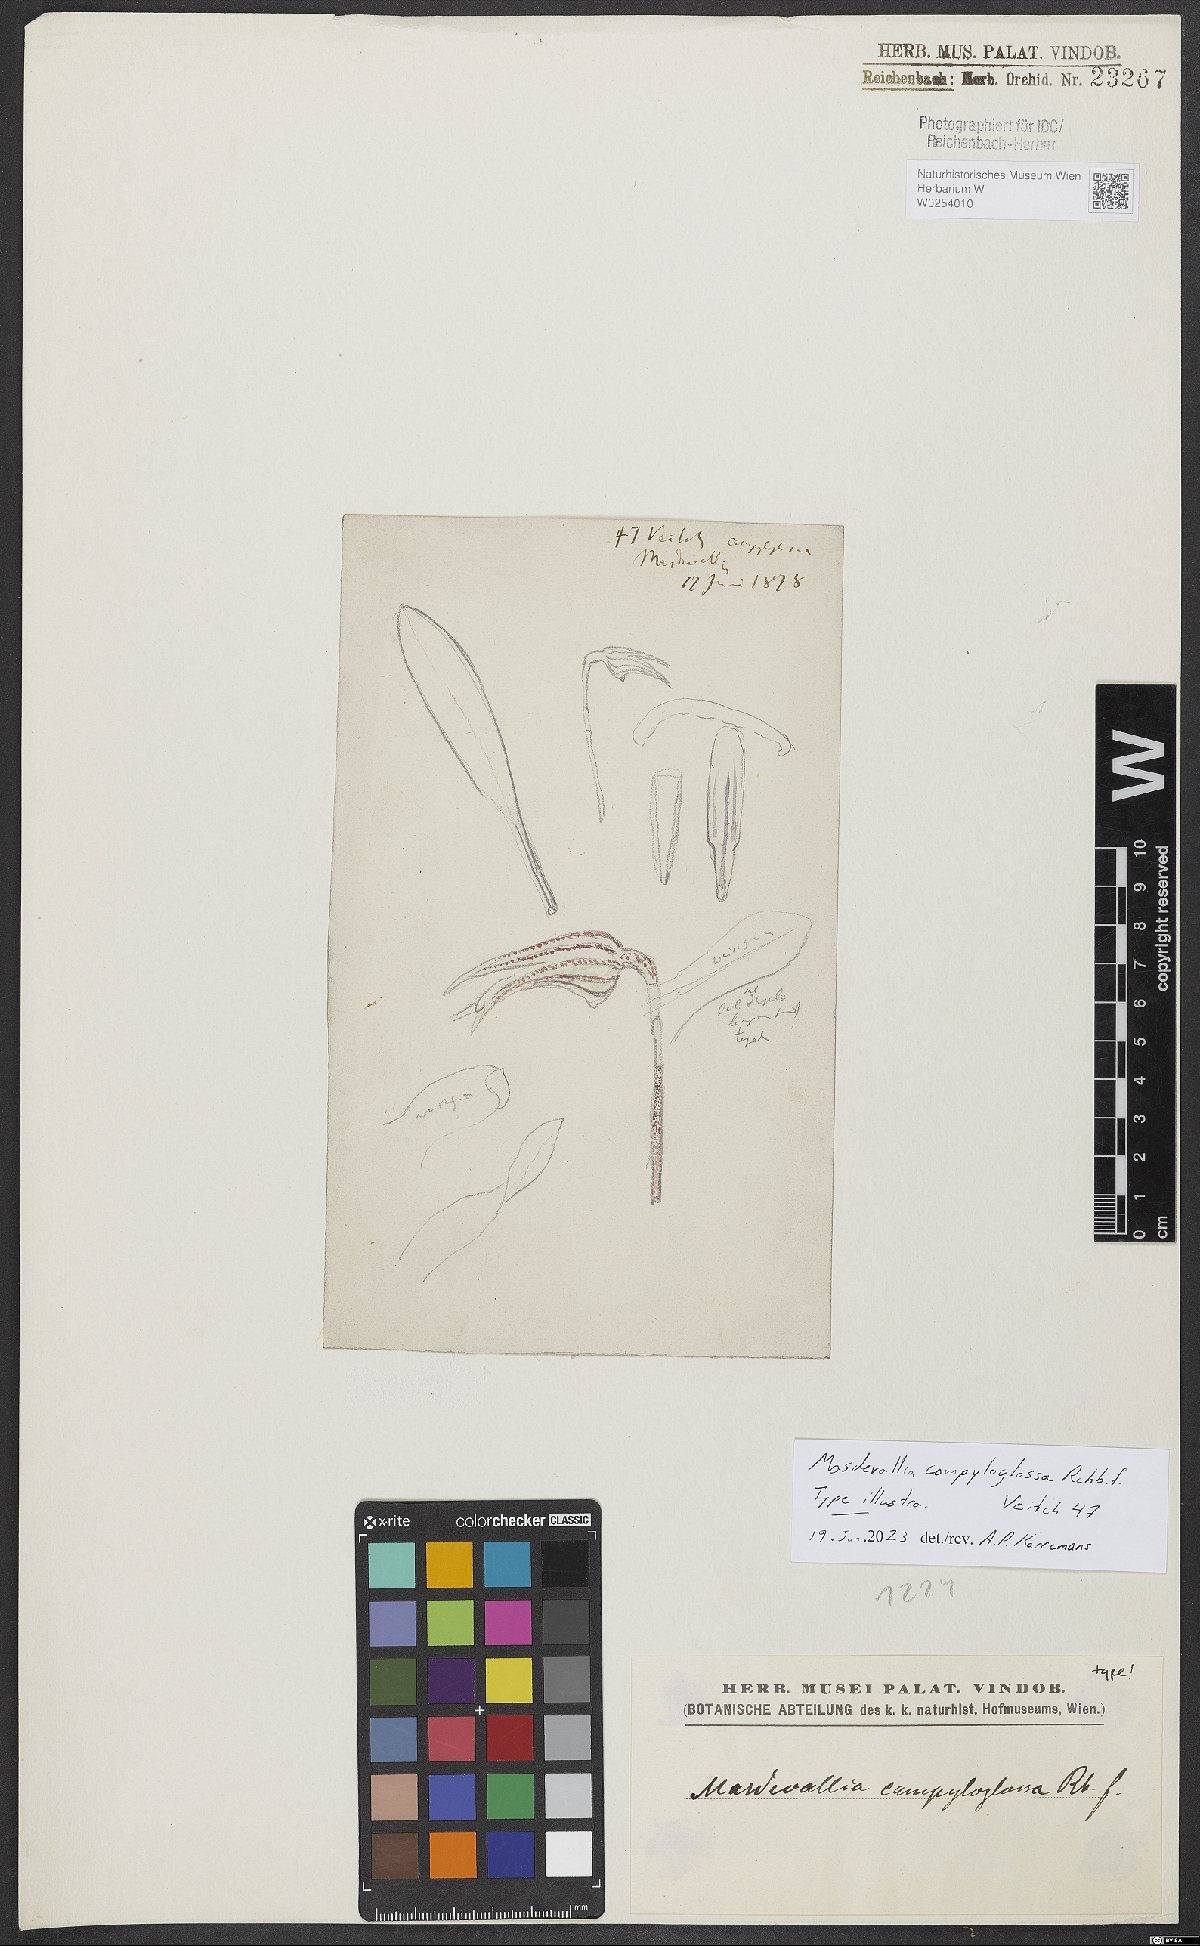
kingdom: Plantae
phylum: Tracheophyta
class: Liliopsida
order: Asparagales
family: Orchidaceae
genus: Masdevallia
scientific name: Masdevallia campyloglossa
